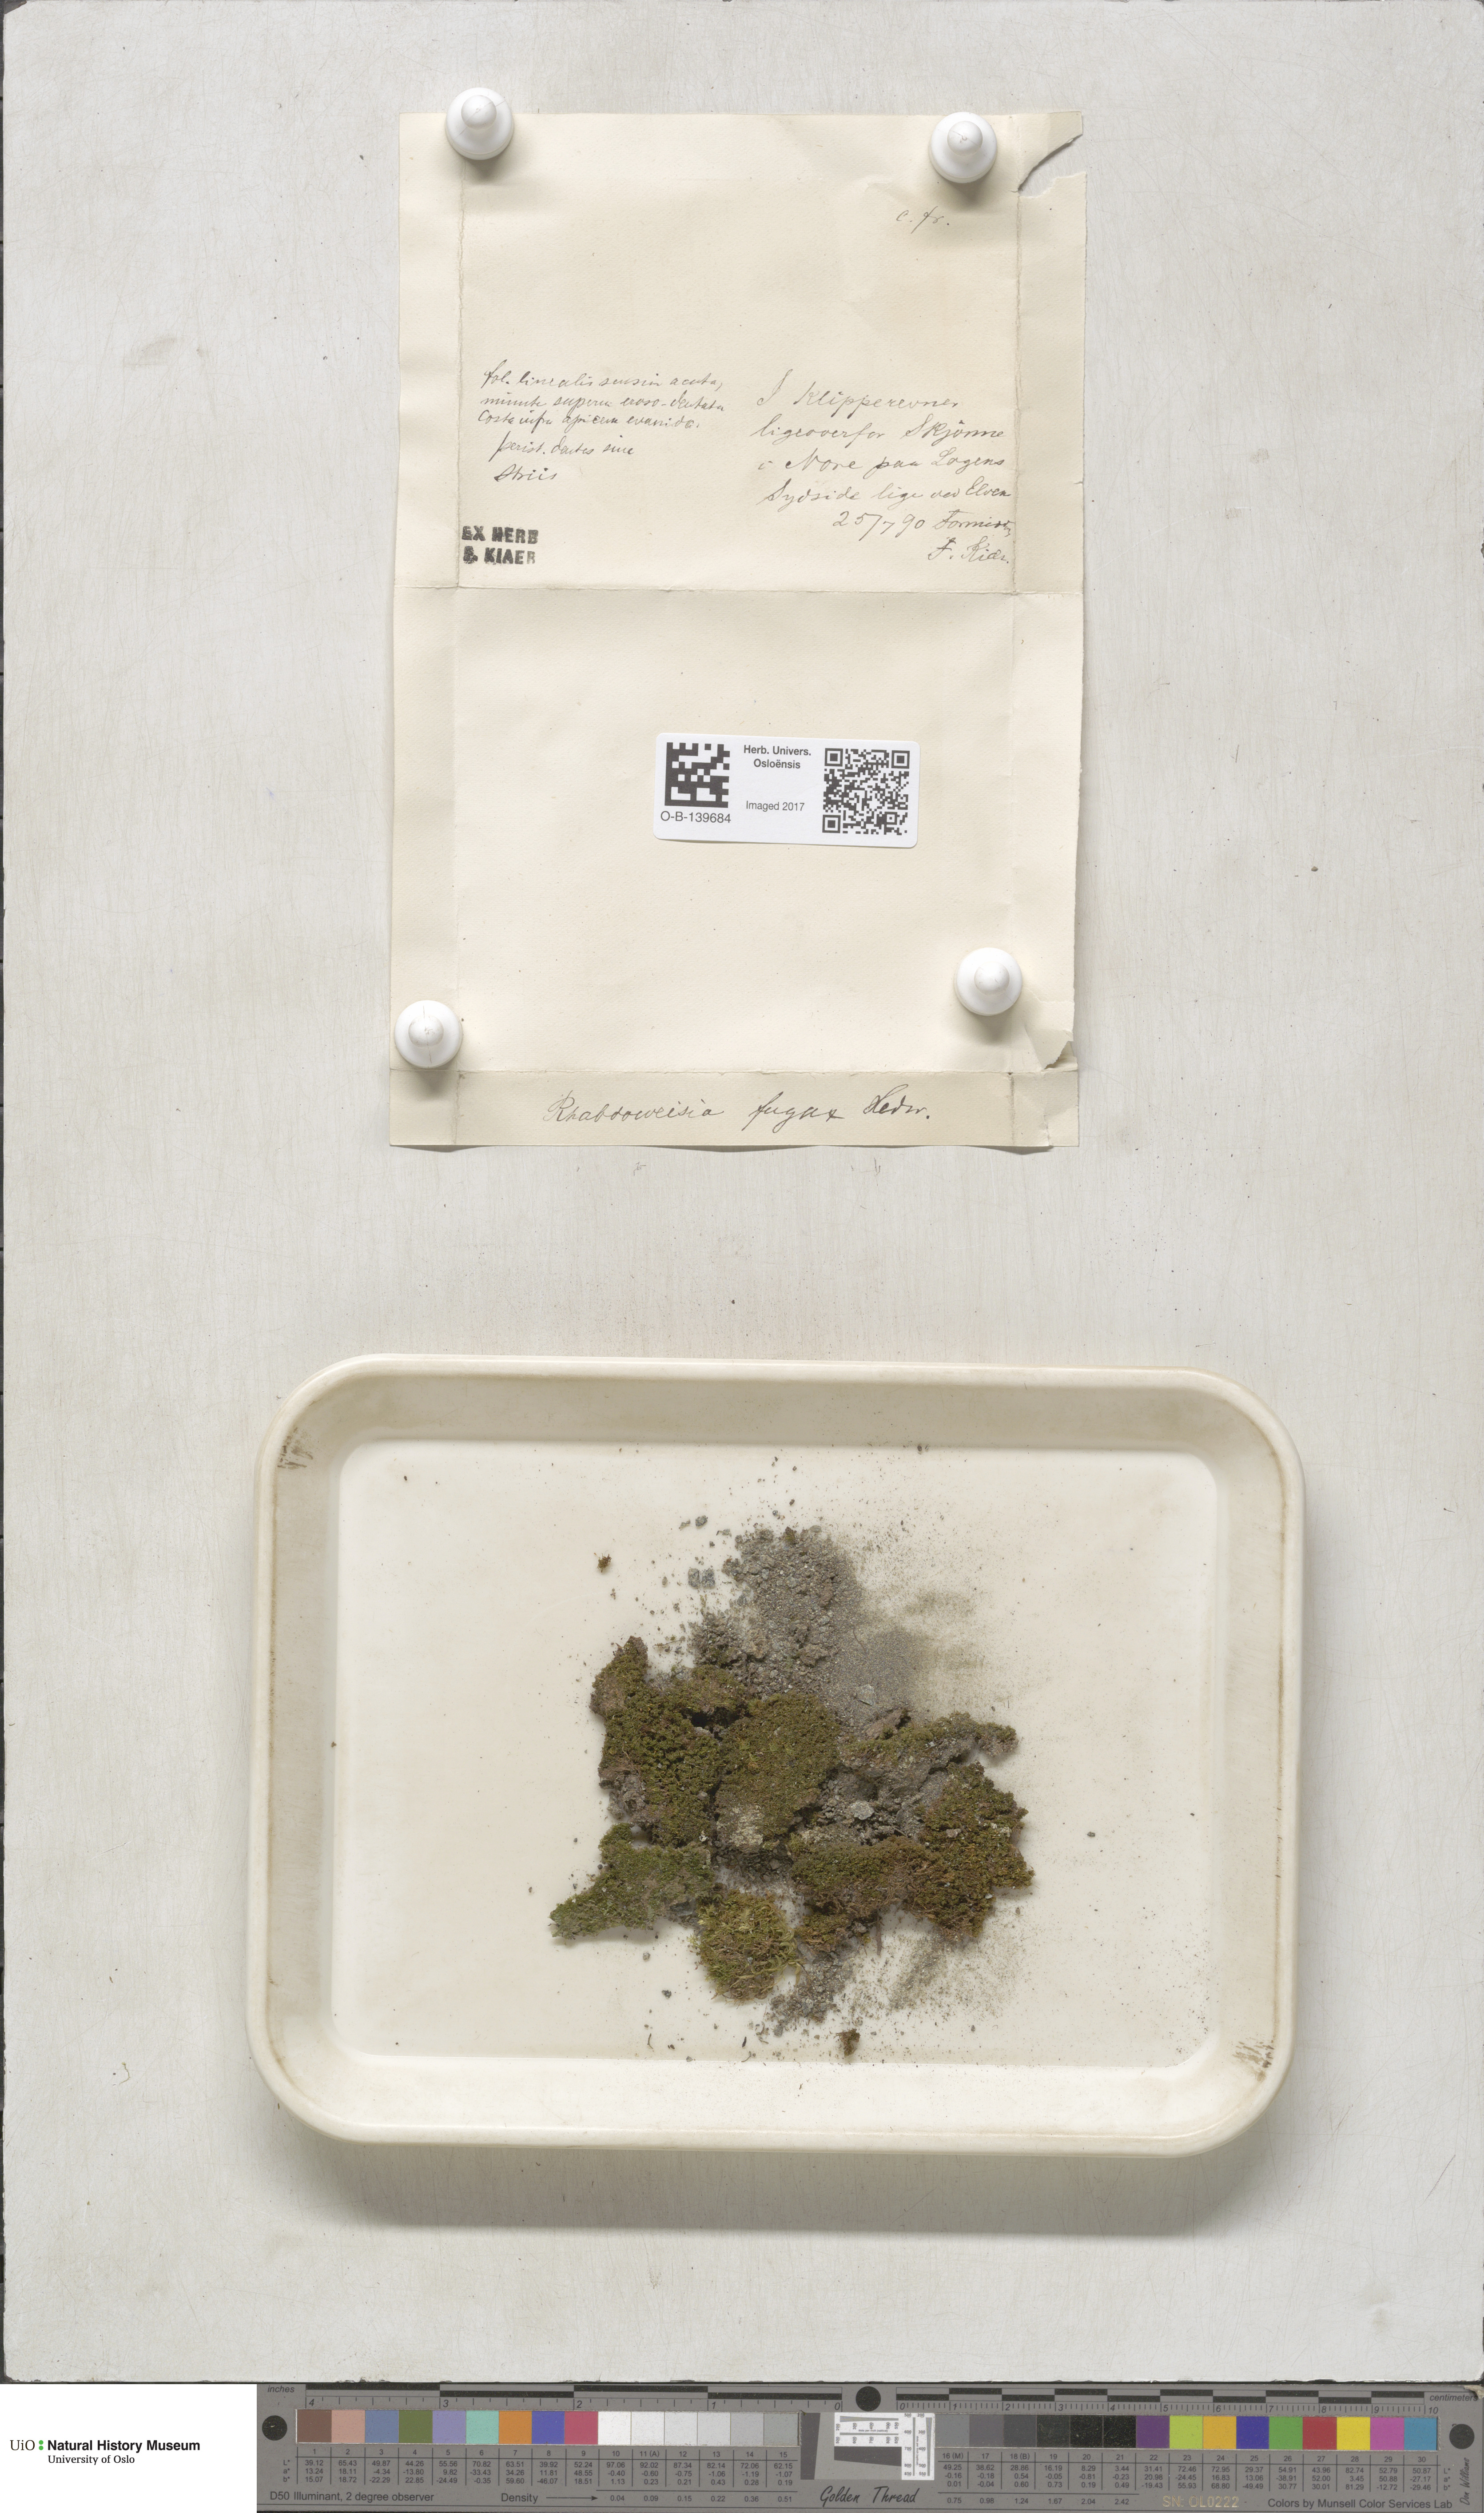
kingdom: Plantae
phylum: Bryophyta
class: Bryopsida
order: Dicranales
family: Rhabdoweisiaceae
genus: Rhabdoweisia
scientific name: Rhabdoweisia fugax
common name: Dwarf streak-moss
